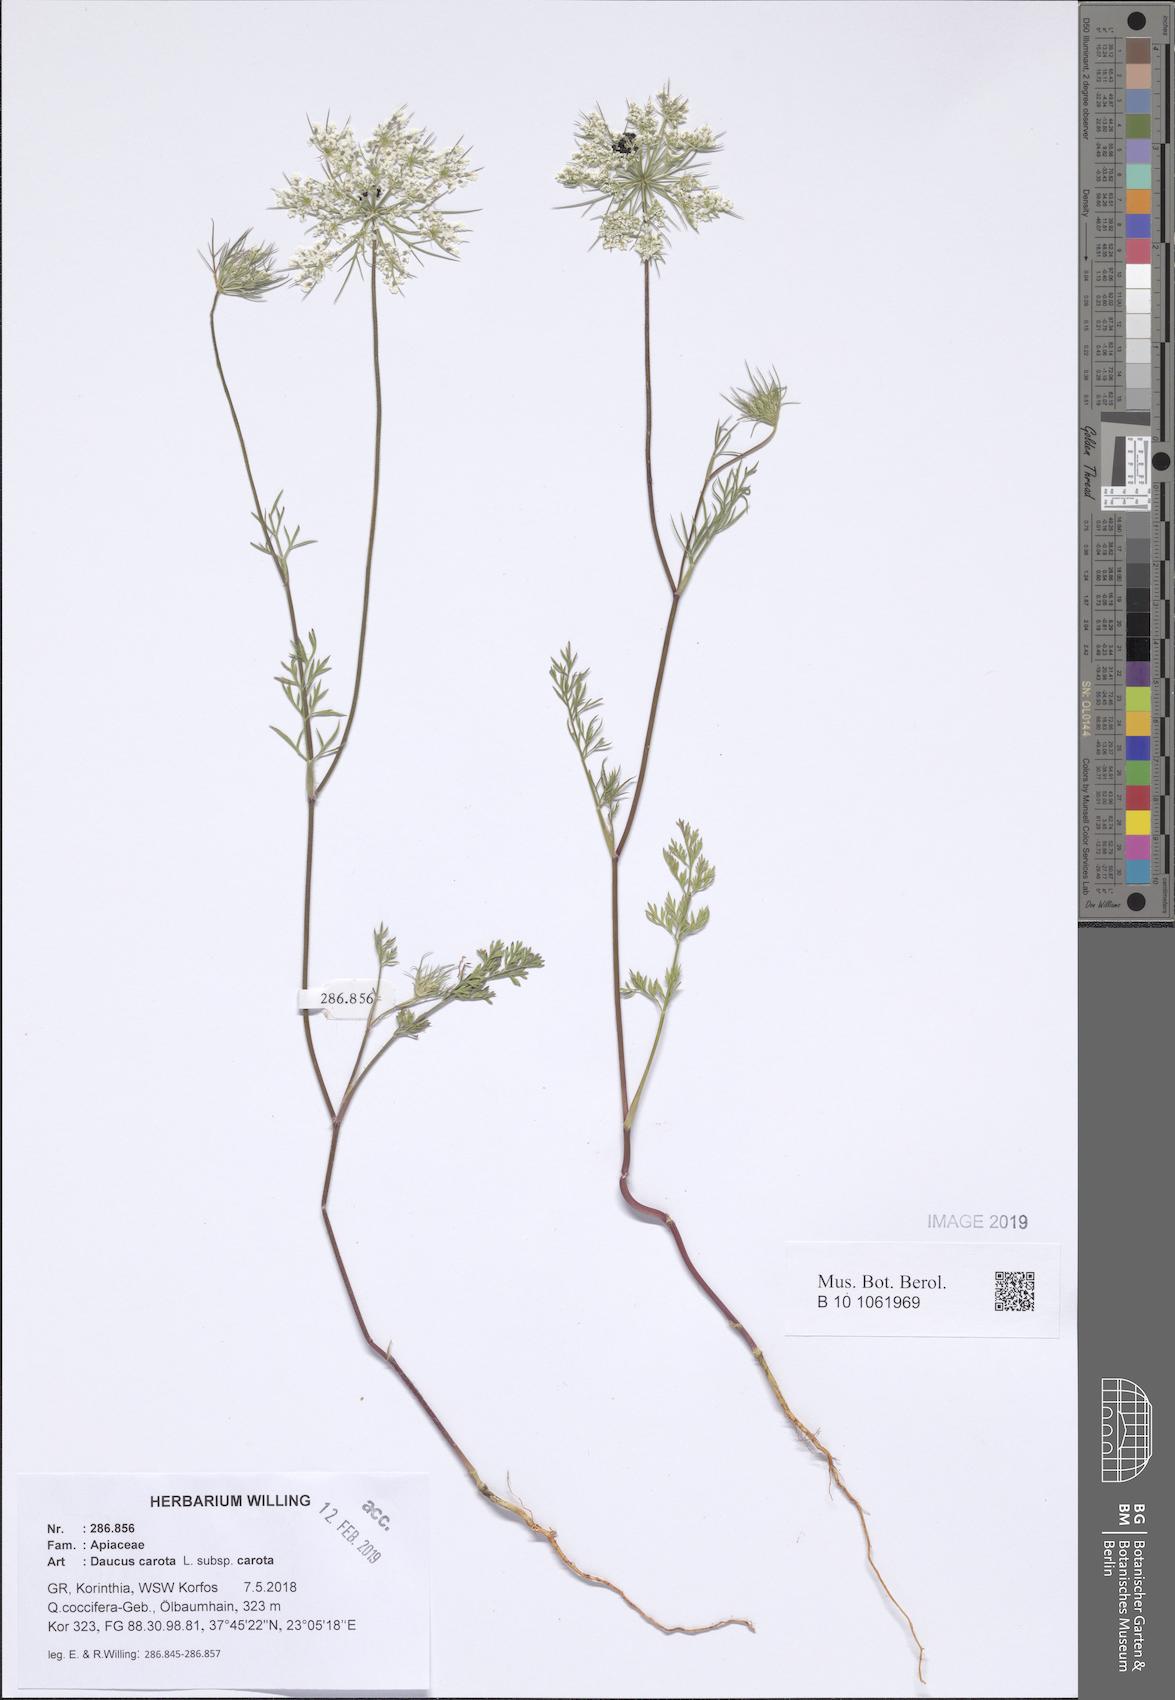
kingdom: Plantae
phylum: Tracheophyta
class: Magnoliopsida
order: Apiales
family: Apiaceae
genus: Daucus
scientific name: Daucus carota
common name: Wild carrot
